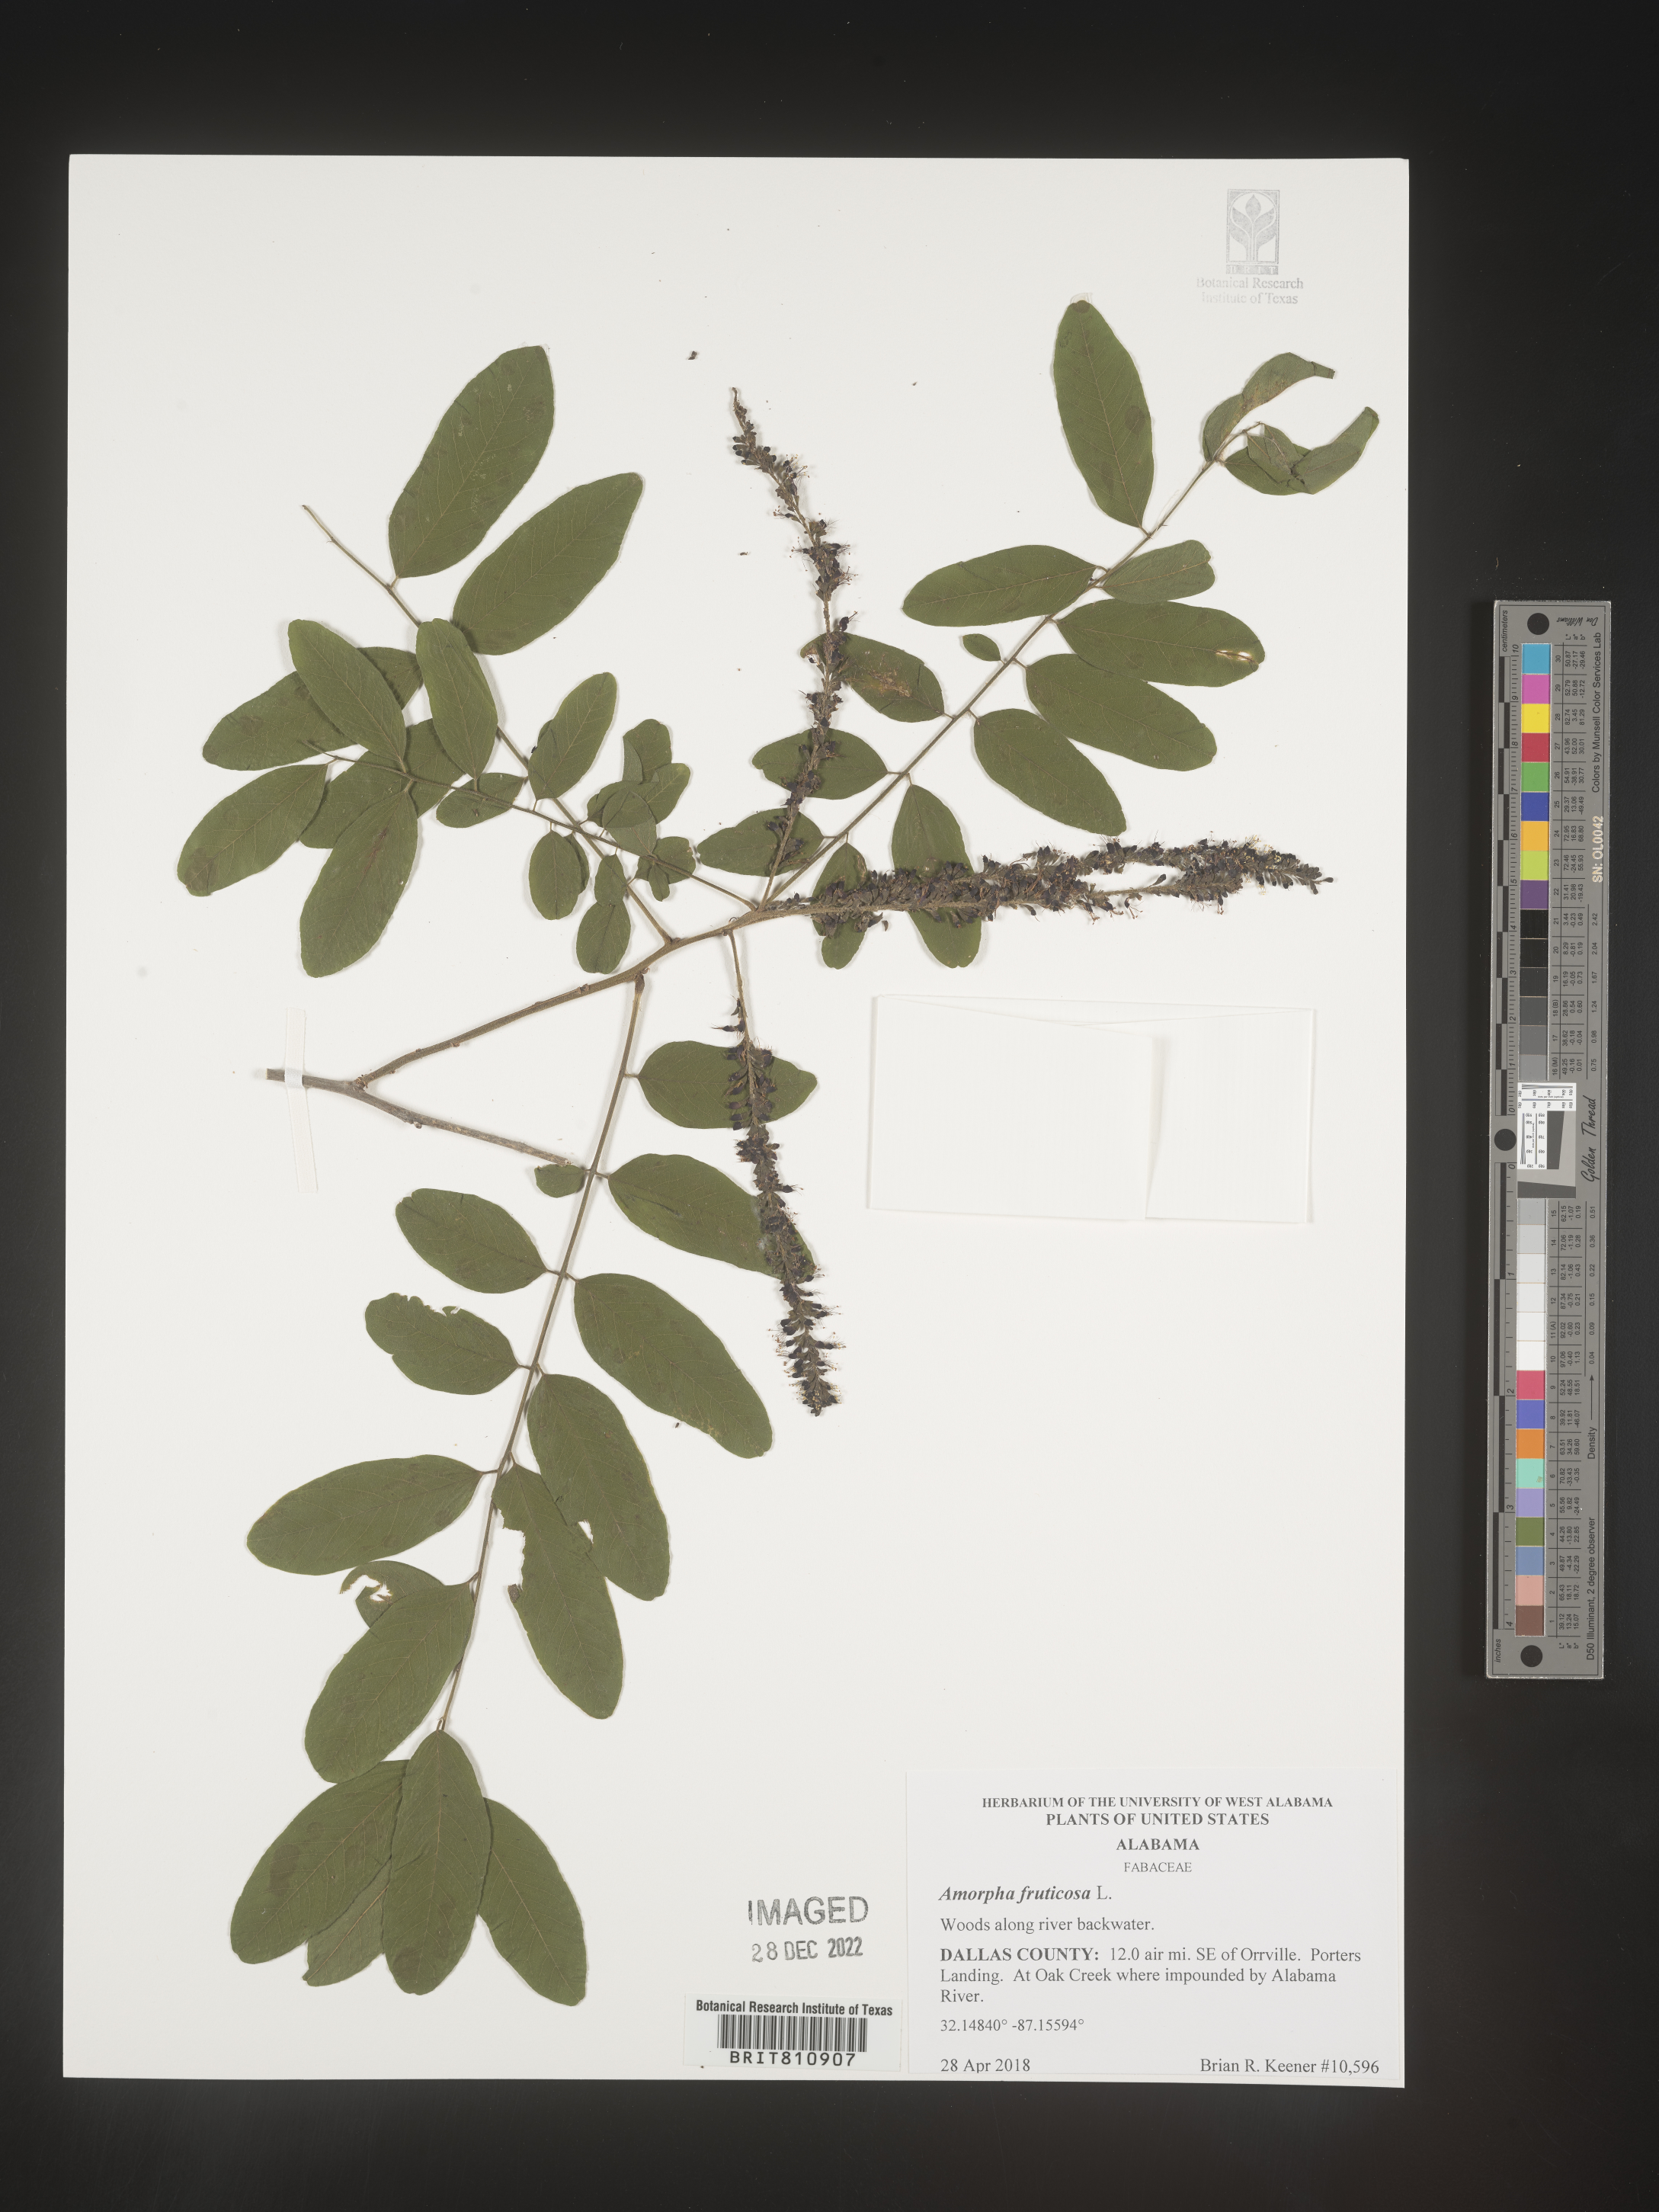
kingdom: Plantae
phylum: Tracheophyta
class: Magnoliopsida
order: Fabales
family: Fabaceae
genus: Amorpha
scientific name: Amorpha fruticosa
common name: False indigo
